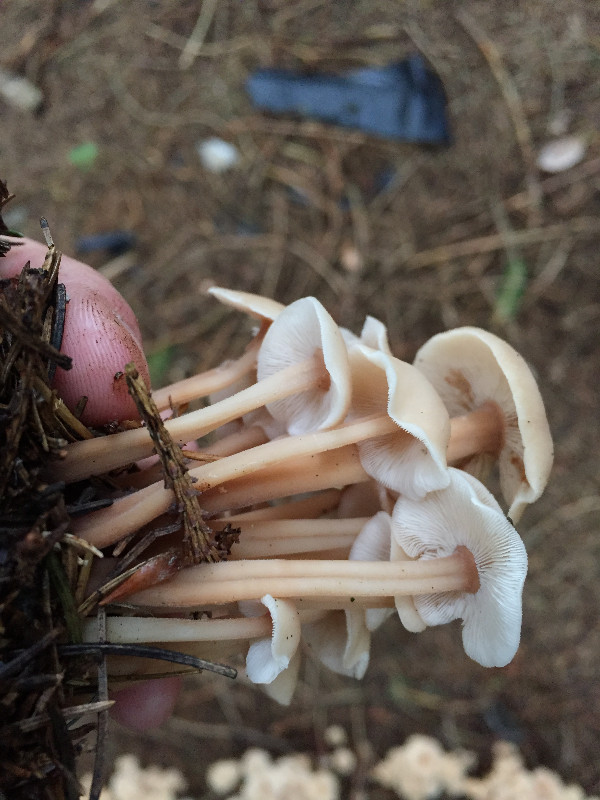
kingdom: Fungi
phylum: Basidiomycota
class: Agaricomycetes
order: Agaricales
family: Omphalotaceae
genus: Collybiopsis
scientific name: Collybiopsis confluens
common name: knippe-fladhat
